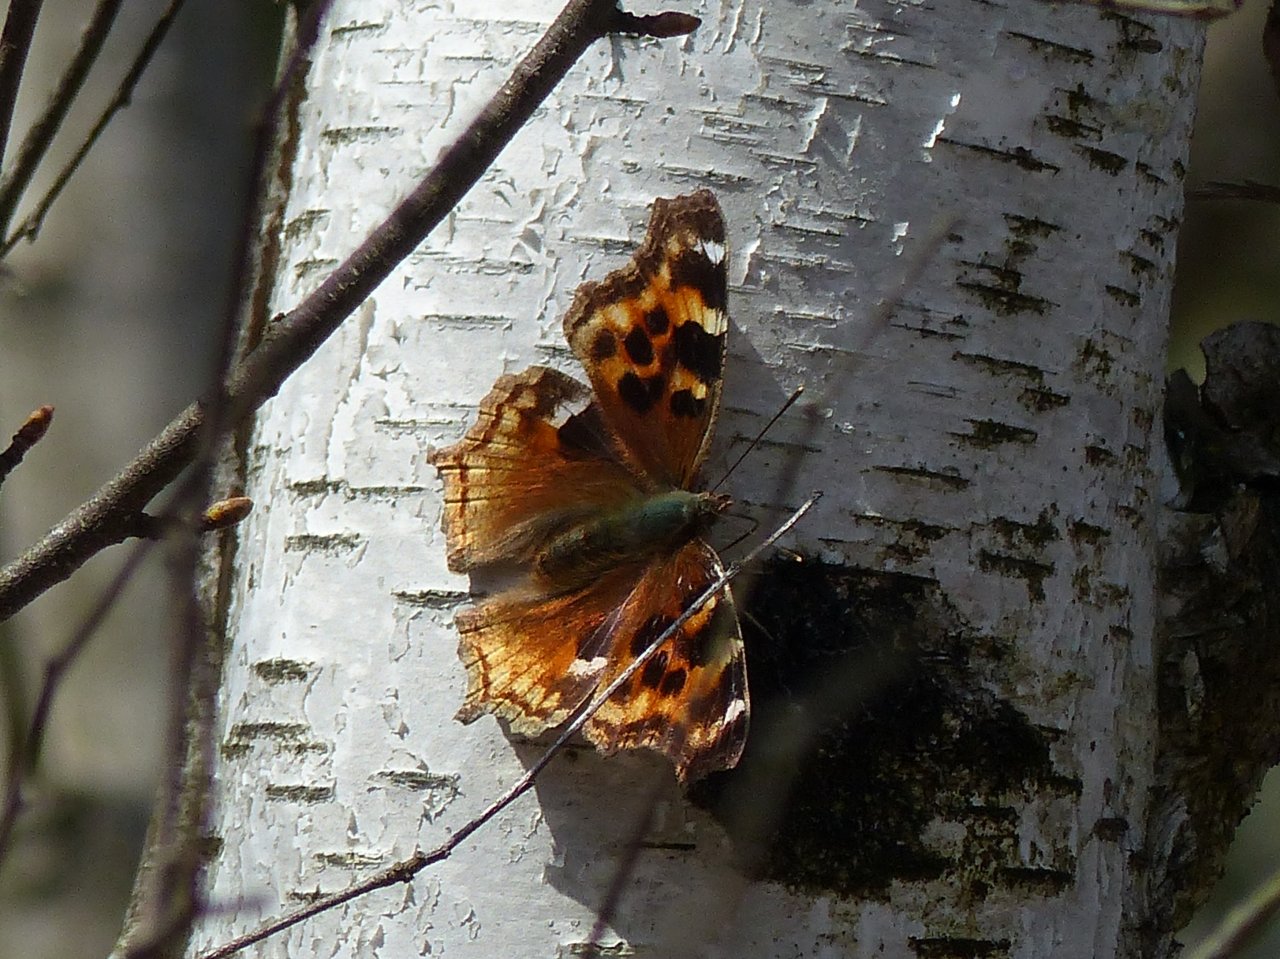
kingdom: Animalia
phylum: Arthropoda
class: Insecta
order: Lepidoptera
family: Nymphalidae
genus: Polygonia
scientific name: Polygonia vaualbum
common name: Compton Tortoiseshell
